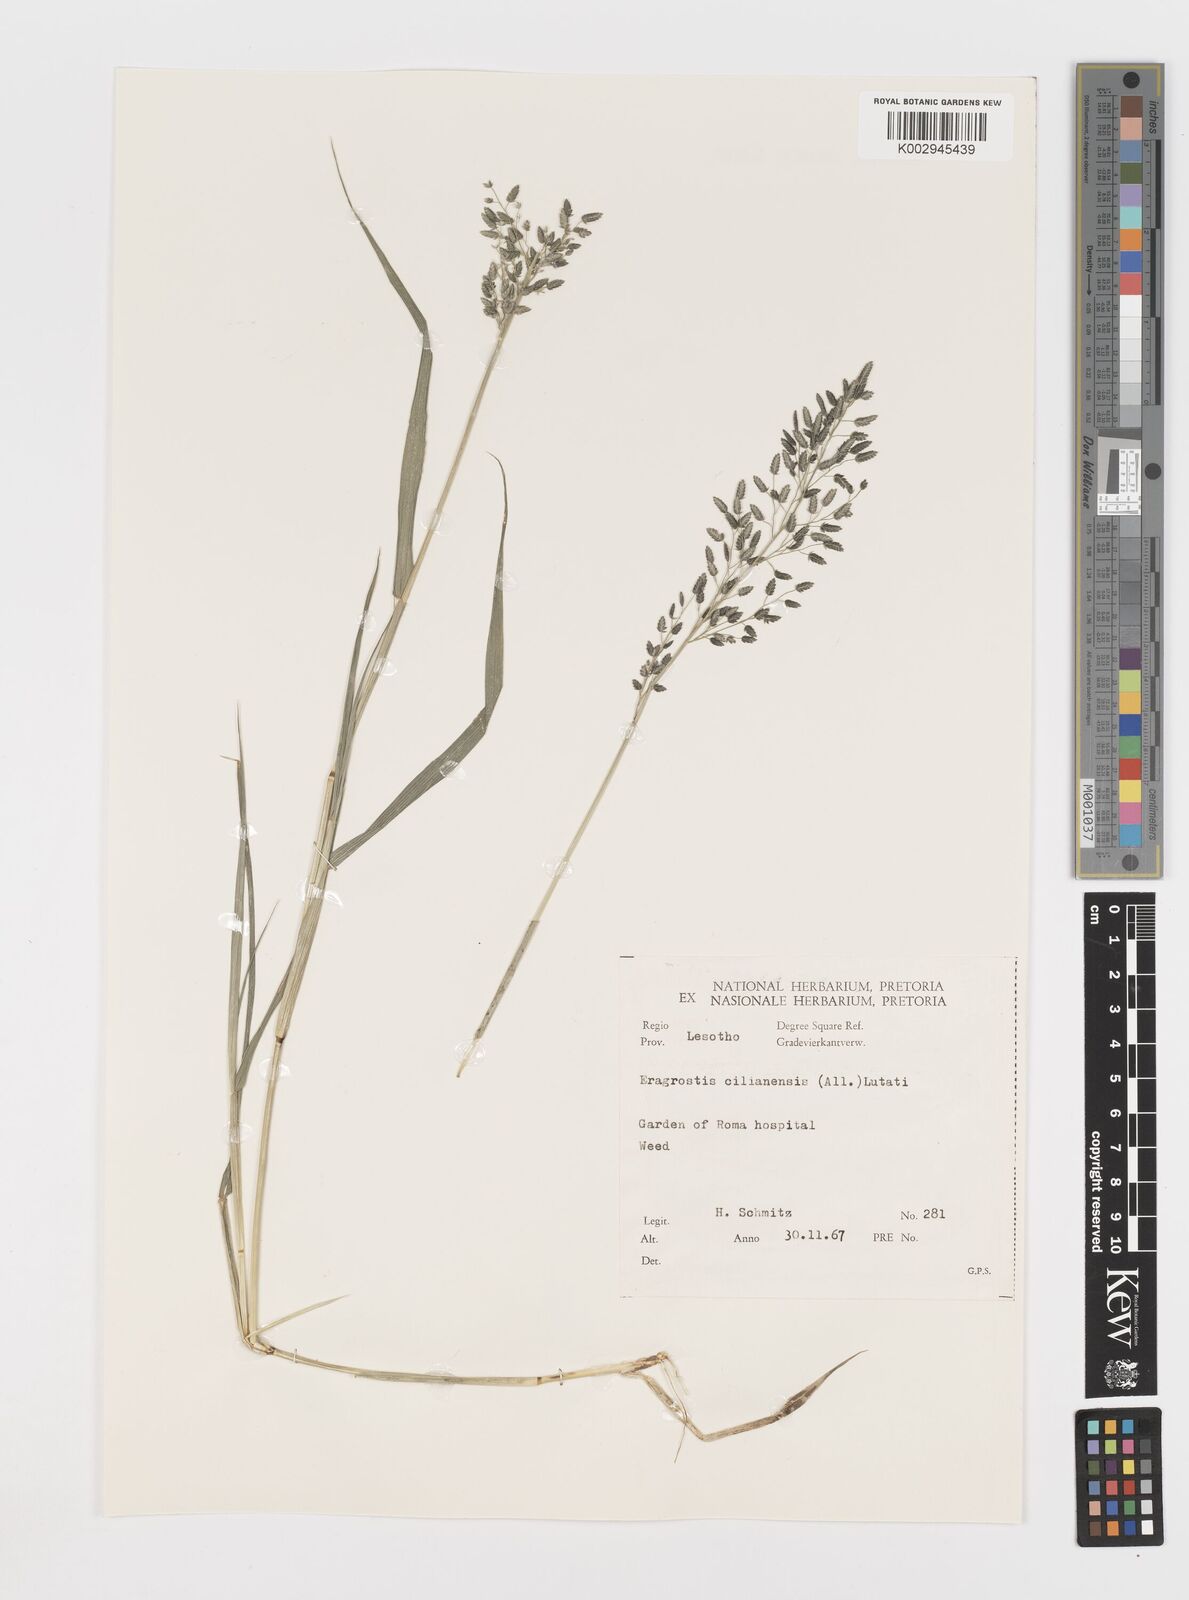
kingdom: Plantae
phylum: Tracheophyta
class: Liliopsida
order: Poales
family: Poaceae
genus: Eragrostis
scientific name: Eragrostis cilianensis
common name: Stinkgrass
